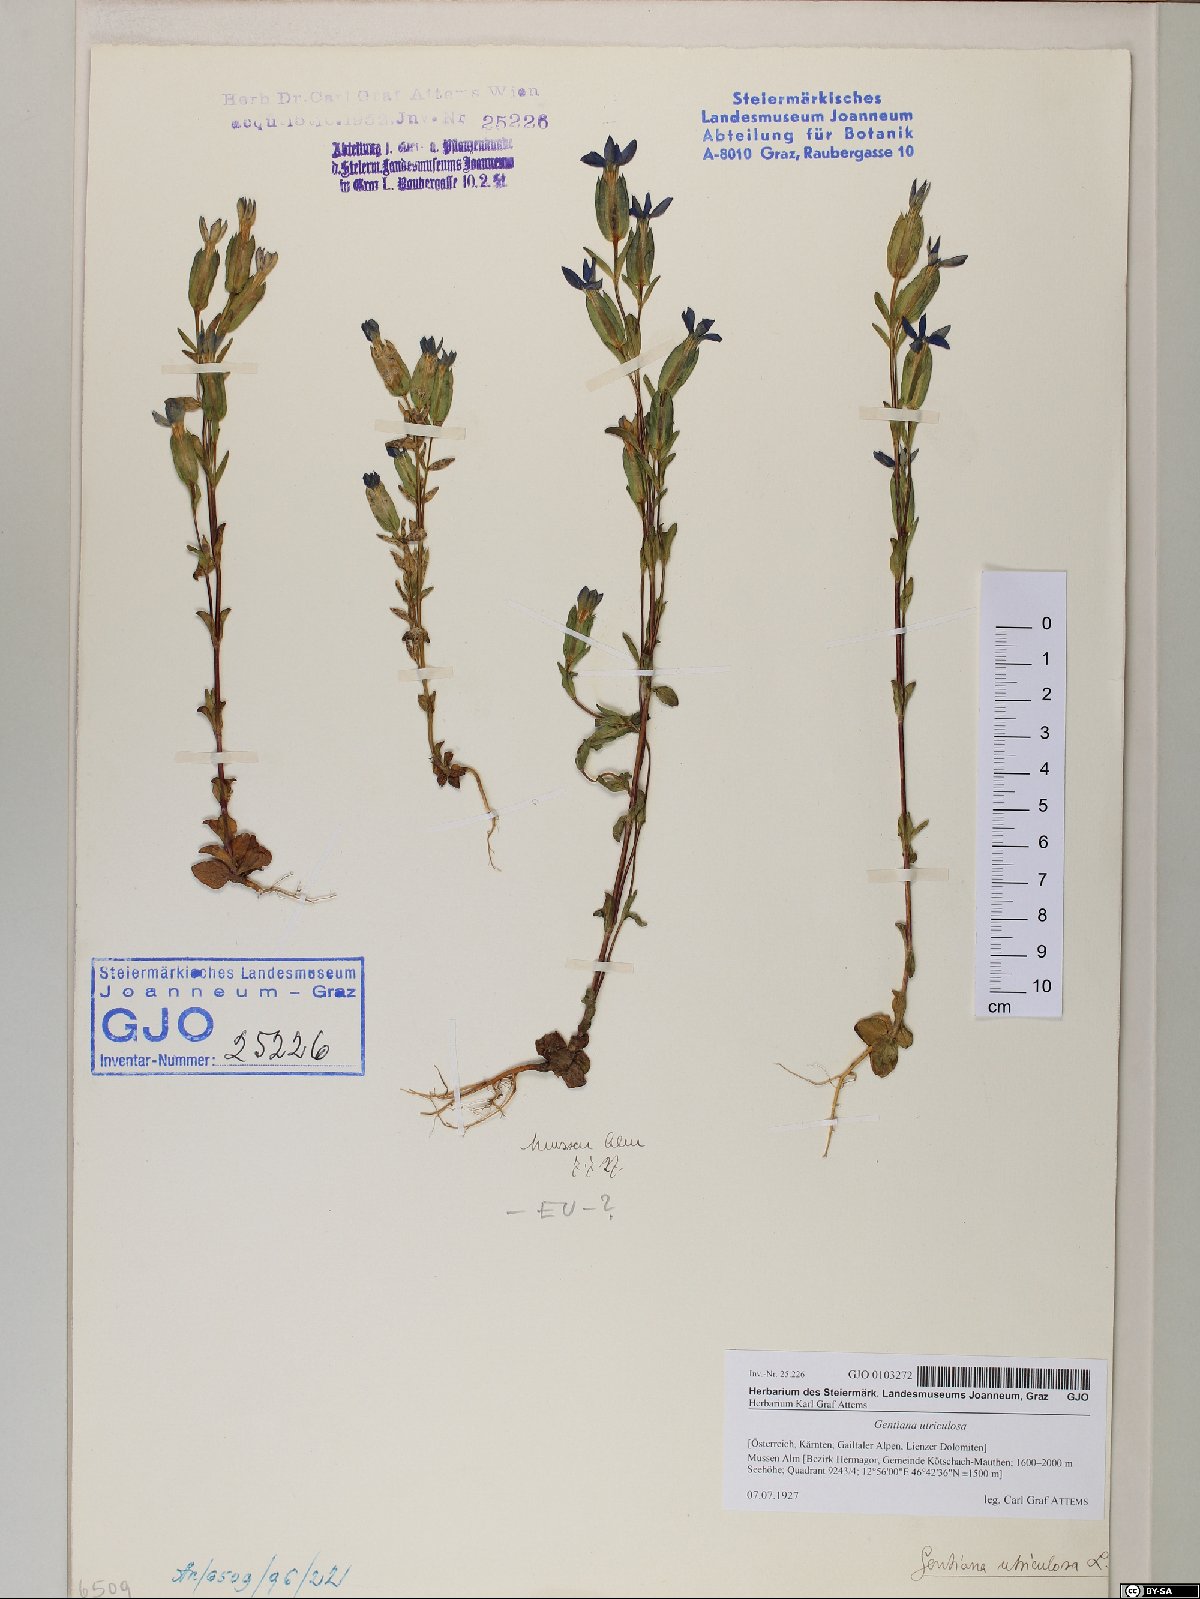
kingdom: Plantae
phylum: Tracheophyta
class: Magnoliopsida
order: Gentianales
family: Gentianaceae
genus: Gentiana
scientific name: Gentiana utriculosa
